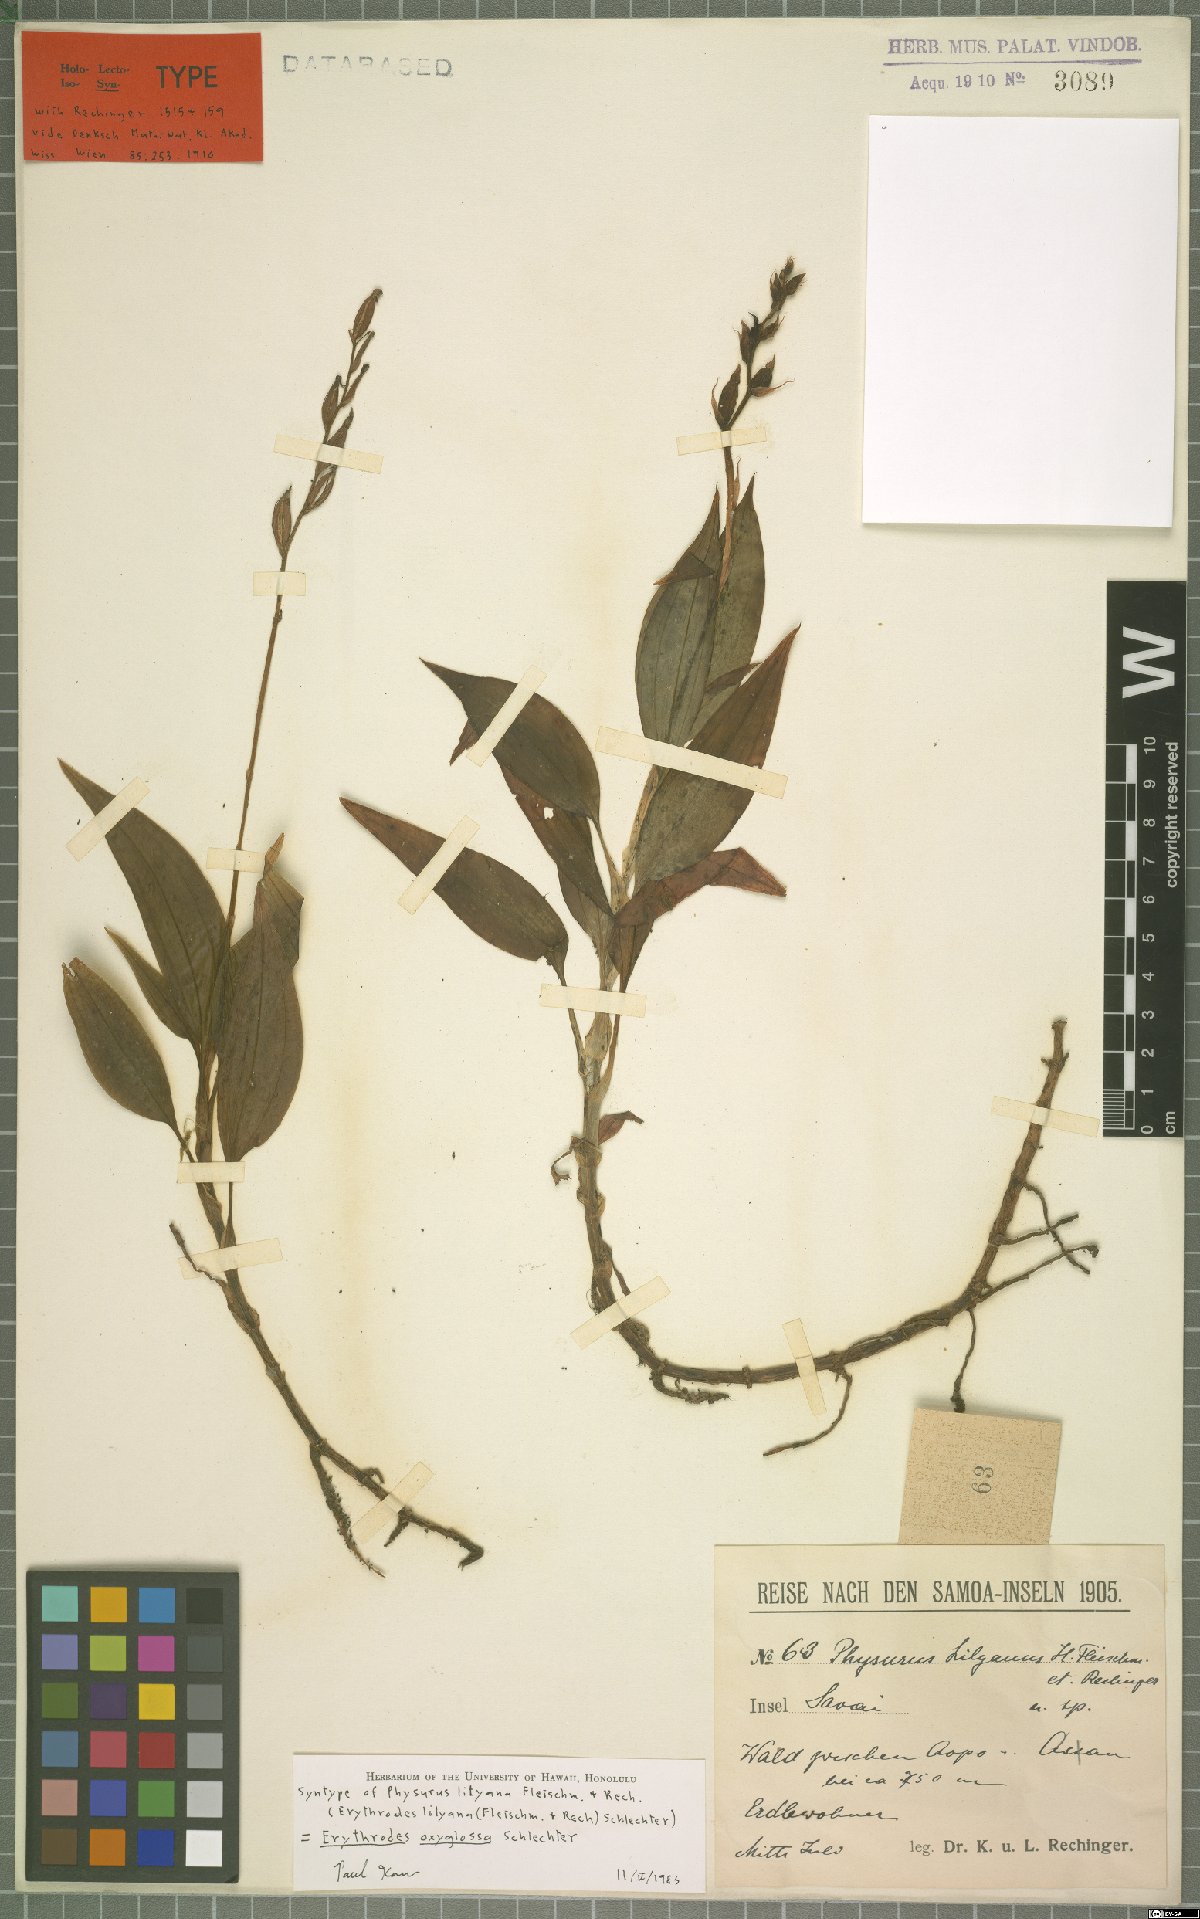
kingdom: Plantae
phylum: Tracheophyta
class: Liliopsida
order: Asparagales
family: Orchidaceae
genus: Erythrodes
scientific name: Erythrodes oxyglossa
